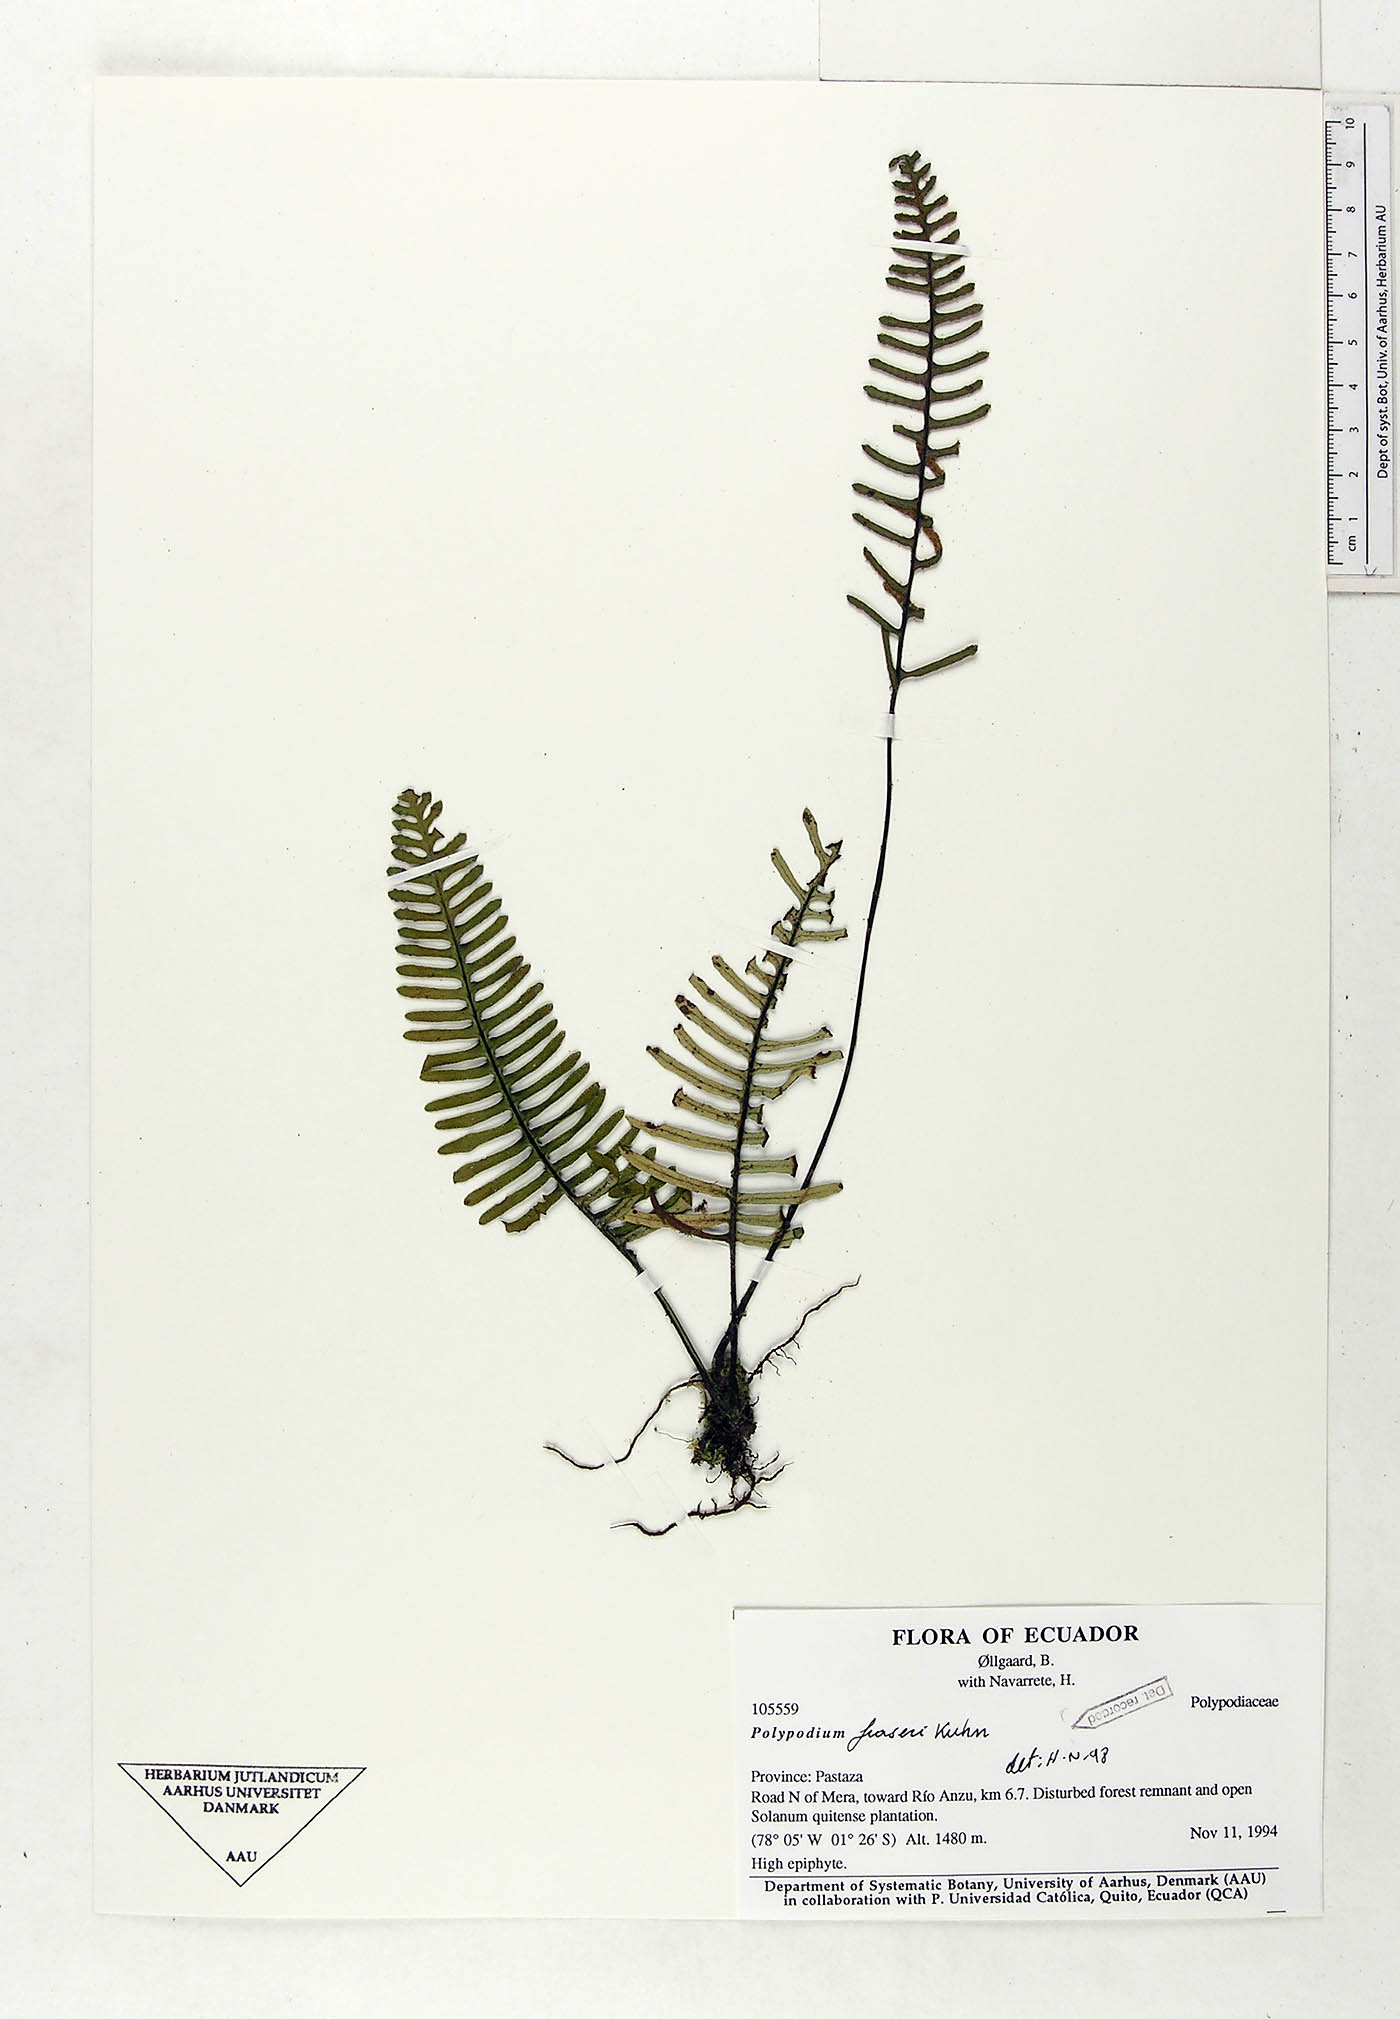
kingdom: Plantae
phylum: Tracheophyta
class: Polypodiopsida
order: Polypodiales
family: Polypodiaceae
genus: Pleopeltis
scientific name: Pleopeltis fraseri
